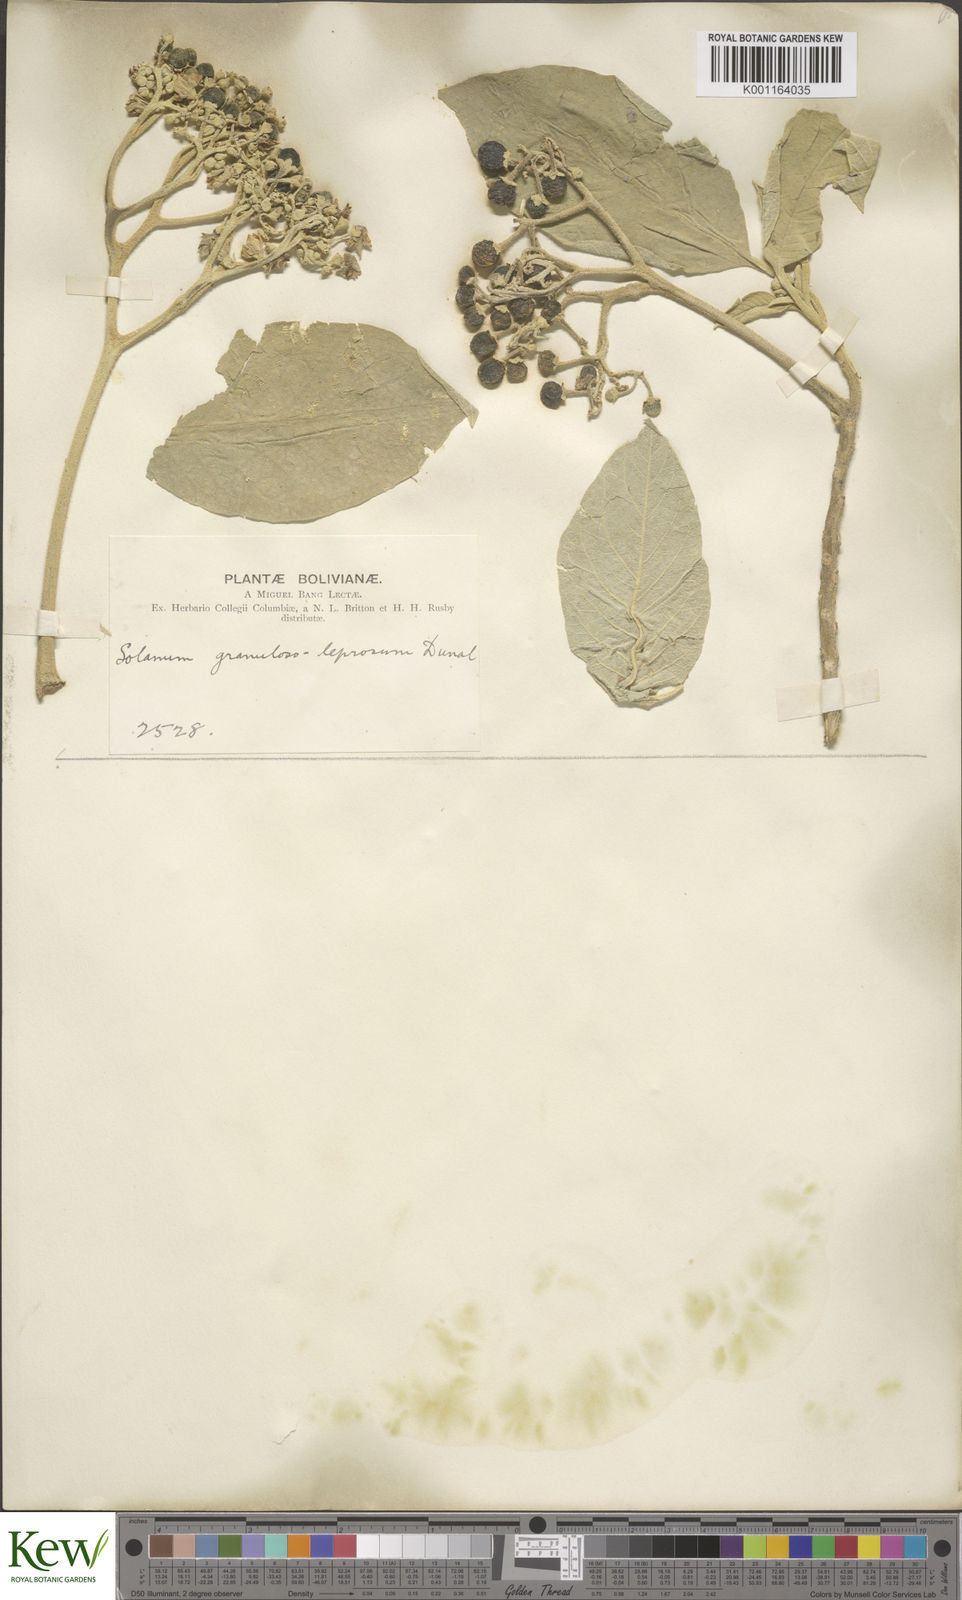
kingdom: Plantae
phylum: Tracheophyta
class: Magnoliopsida
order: Solanales
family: Solanaceae
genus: Solanum
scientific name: Solanum granulosoleprosum
